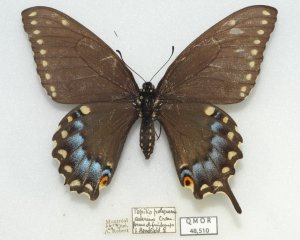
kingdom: Animalia
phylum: Arthropoda
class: Insecta
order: Lepidoptera
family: Papilionidae
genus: Papilio
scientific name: Papilio polyxenes
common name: Black Swallowtail
